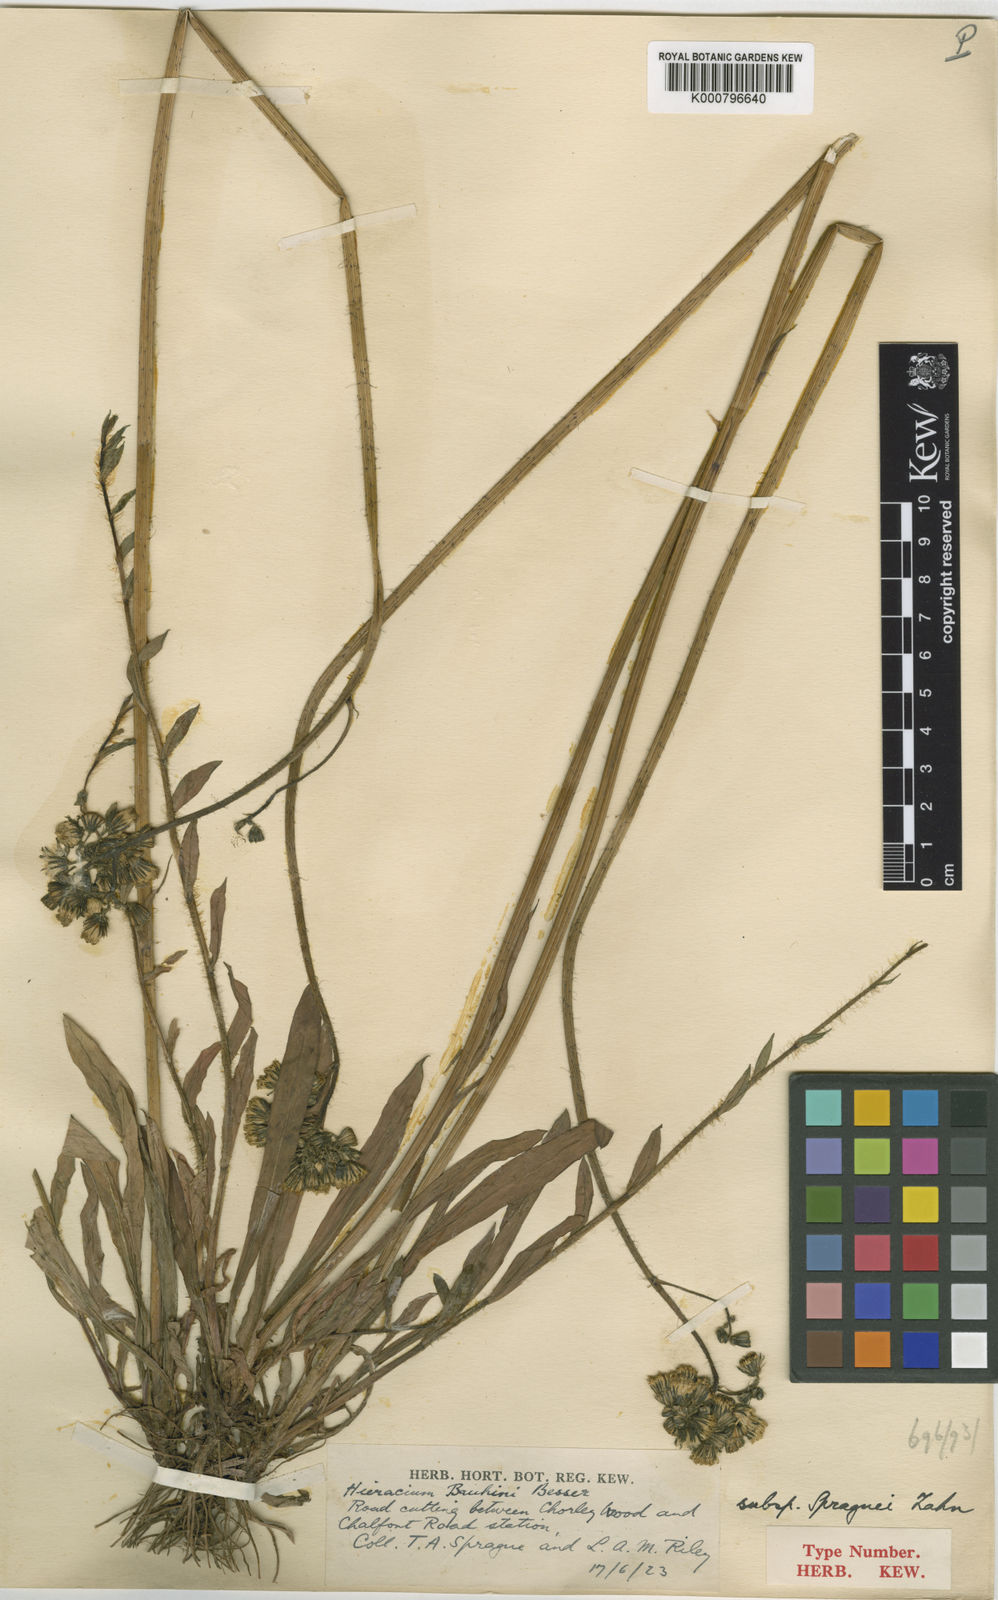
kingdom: Plantae
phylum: Tracheophyta
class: Magnoliopsida
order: Asterales
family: Asteraceae
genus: Pilosella
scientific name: Pilosella bauhini
